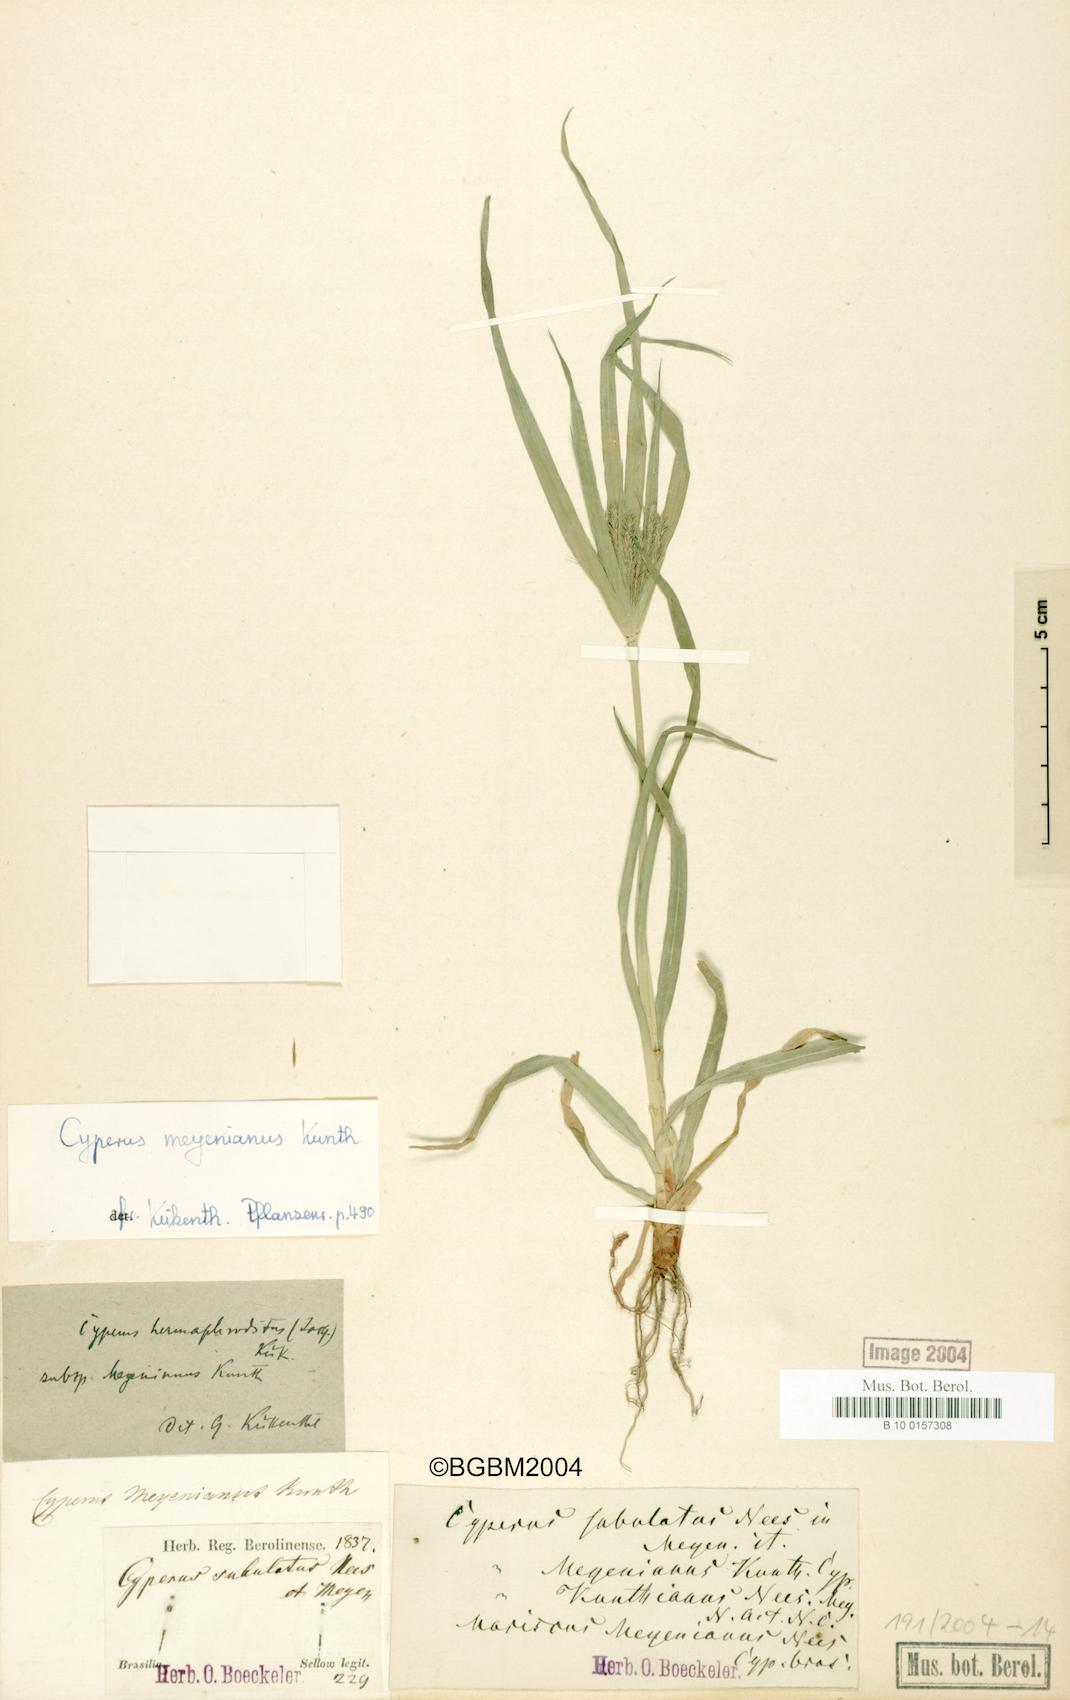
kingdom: Plantae
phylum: Tracheophyta
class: Liliopsida
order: Poales
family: Cyperaceae
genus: Cyperus
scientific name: Cyperus meyenianus
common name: Meyen's flatsedge
